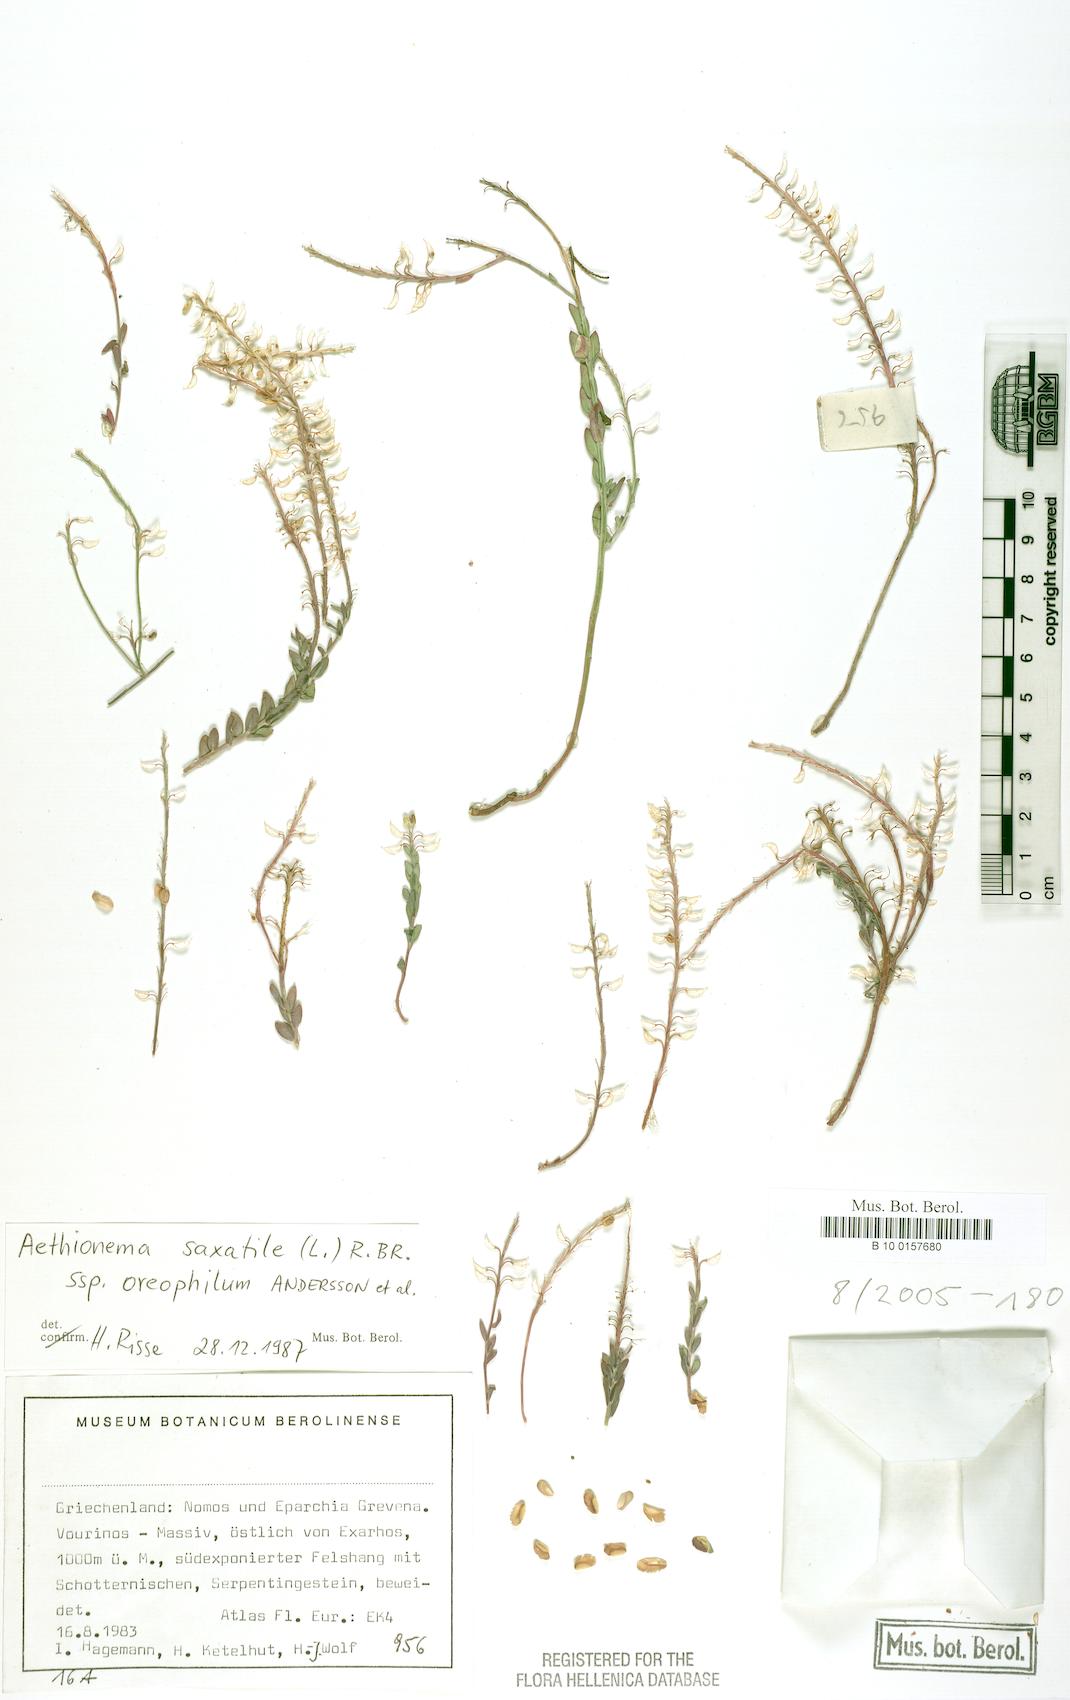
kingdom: Plantae
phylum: Tracheophyta
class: Magnoliopsida
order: Brassicales
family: Brassicaceae
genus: Aethionema
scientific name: Aethionema saxatile
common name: Burnt candytuft
